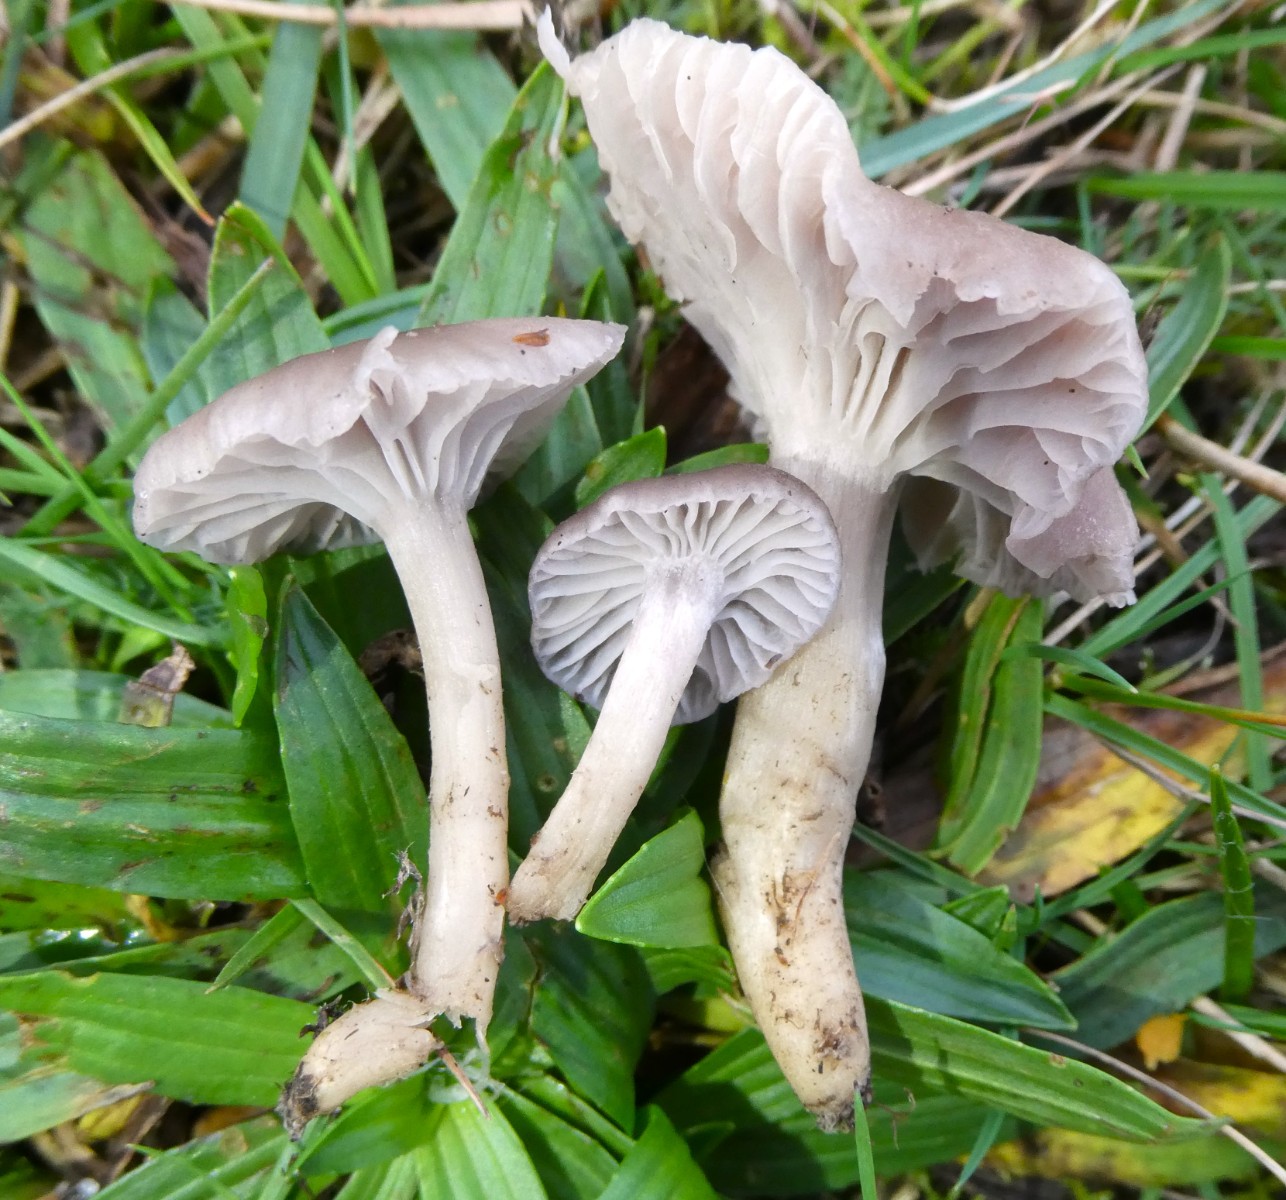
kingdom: Fungi
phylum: Basidiomycota
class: Agaricomycetes
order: Agaricales
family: Hygrophoraceae
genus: Cuphophyllus
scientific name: Cuphophyllus flavipes
